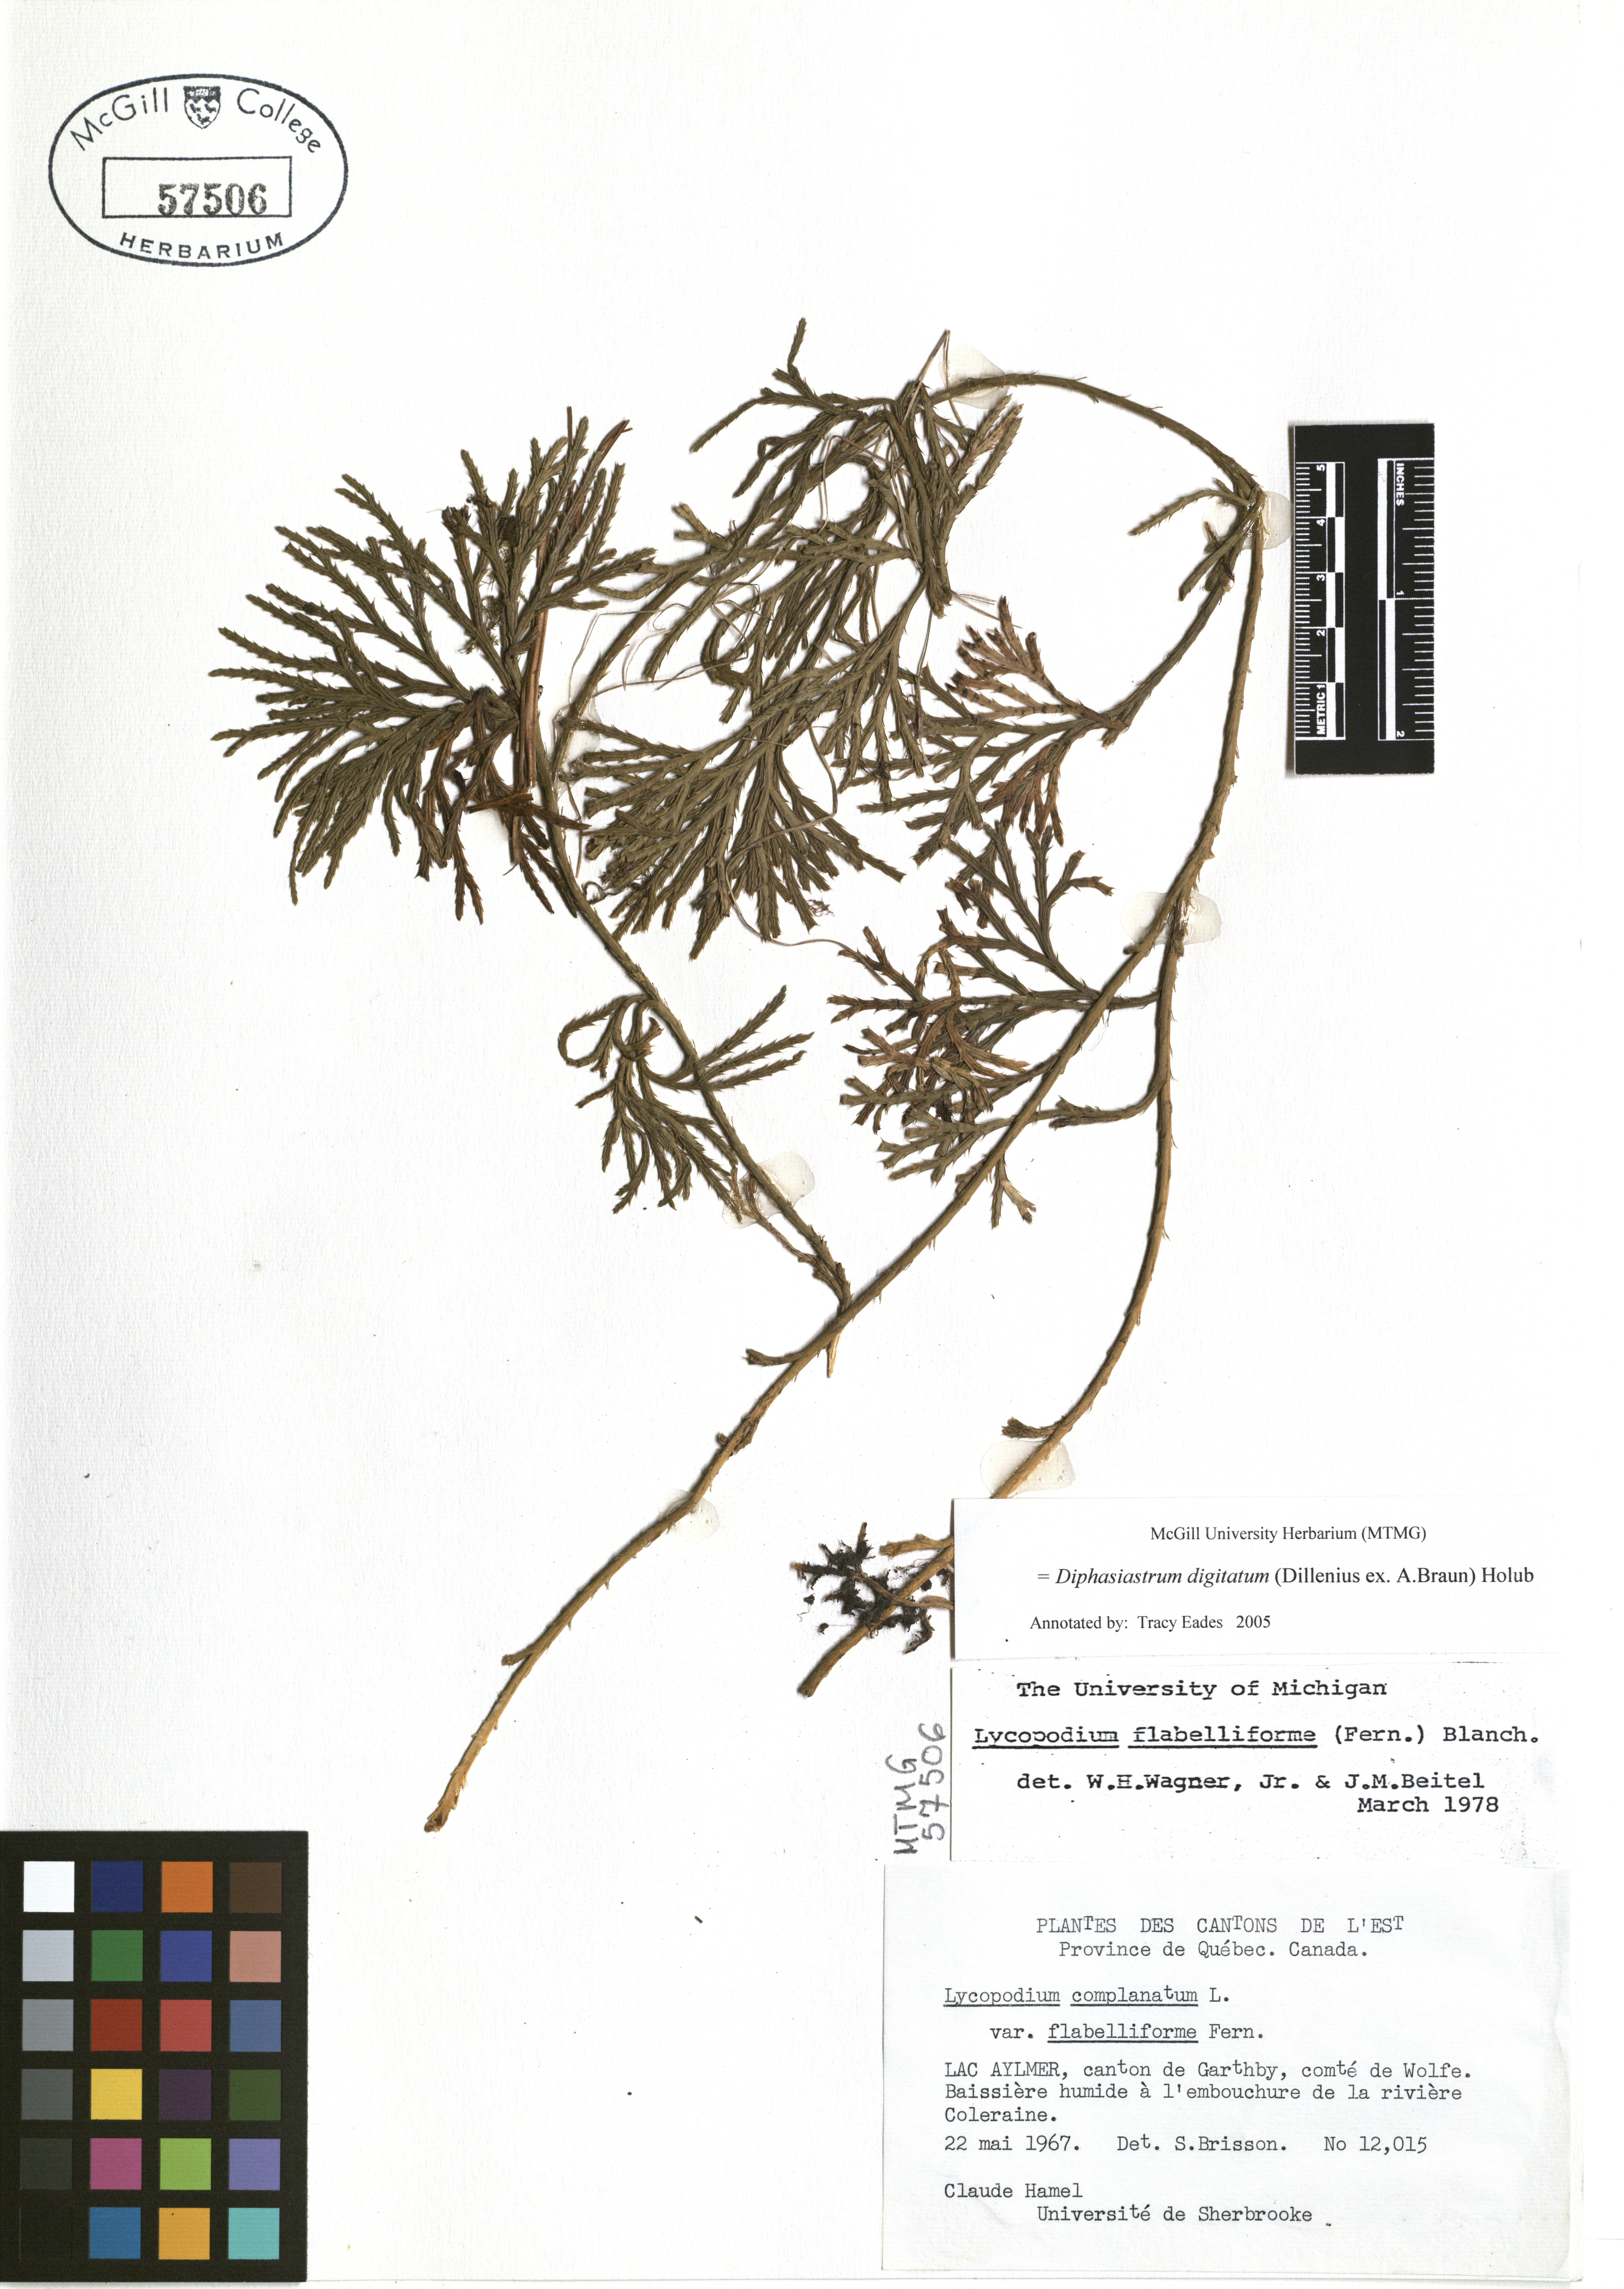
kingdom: Plantae
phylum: Tracheophyta
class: Lycopodiopsida
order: Lycopodiales
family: Lycopodiaceae
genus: Diphasiastrum
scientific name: Diphasiastrum digitatum
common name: Southern running-pine
